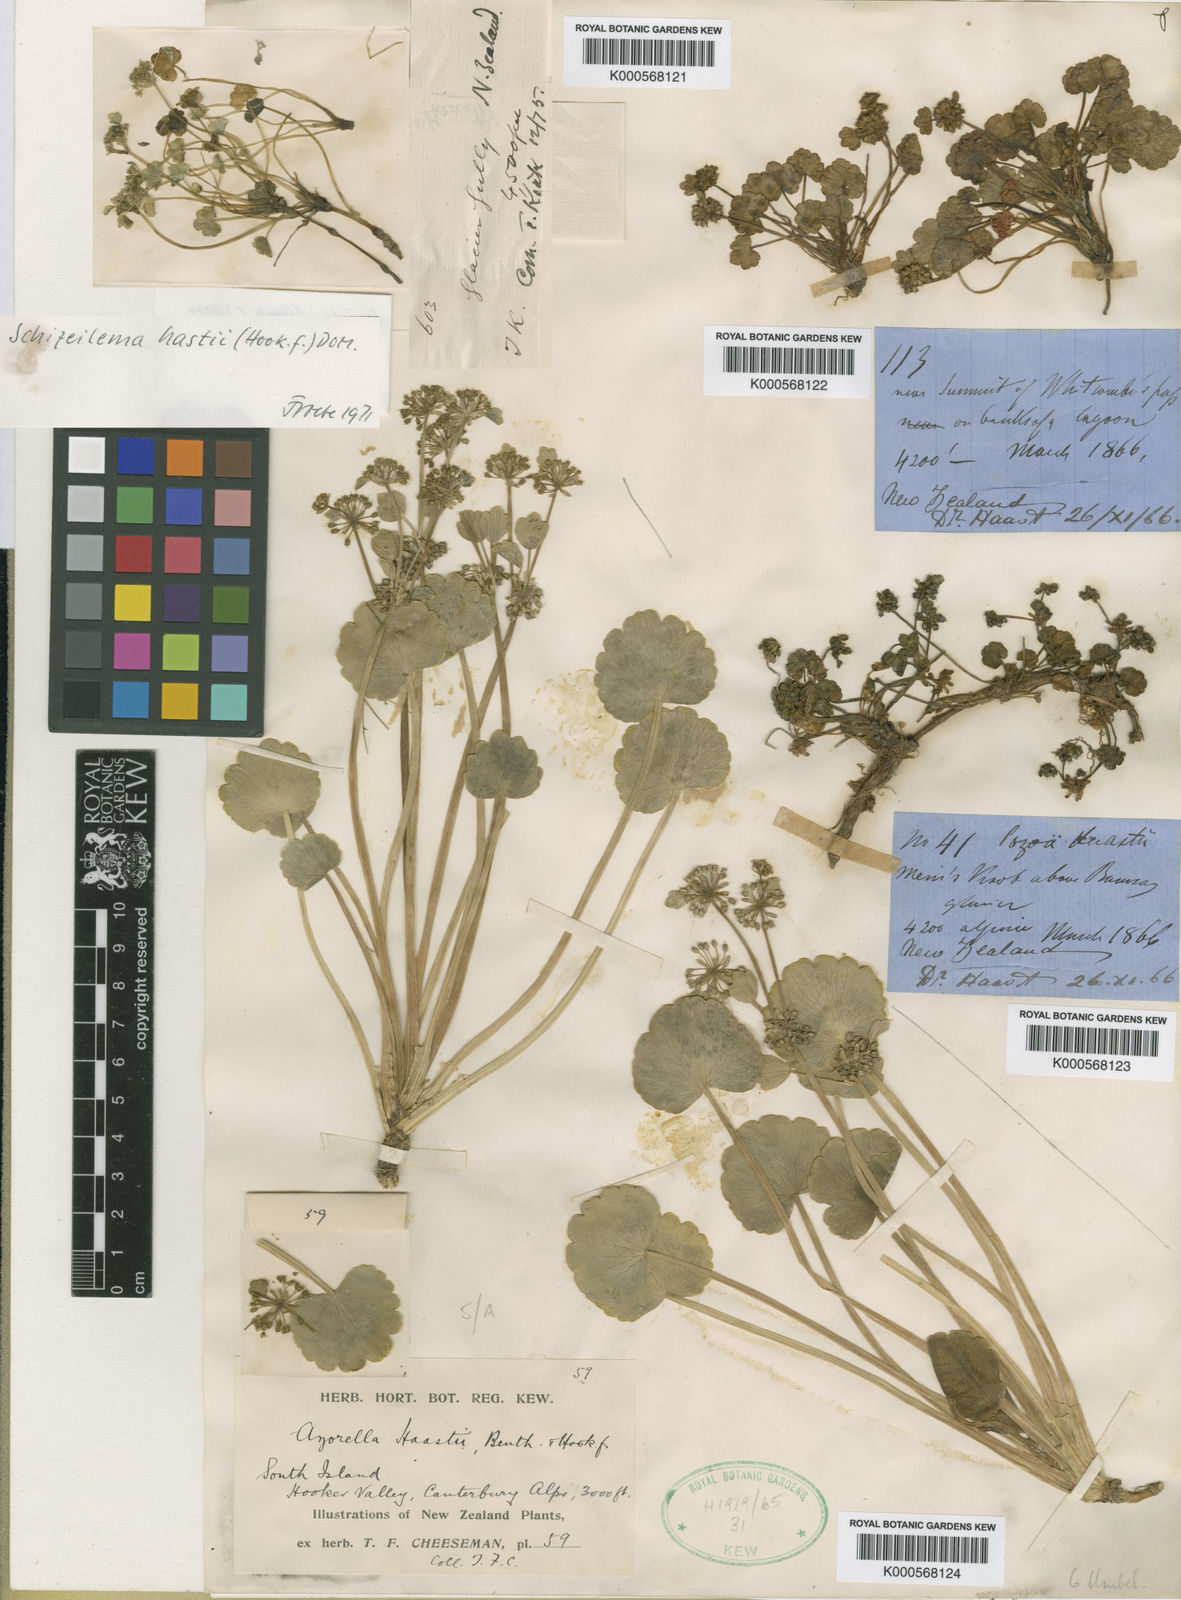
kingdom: Plantae
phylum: Tracheophyta
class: Magnoliopsida
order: Apiales
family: Apiaceae
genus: Azorella
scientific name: Azorella haastii
